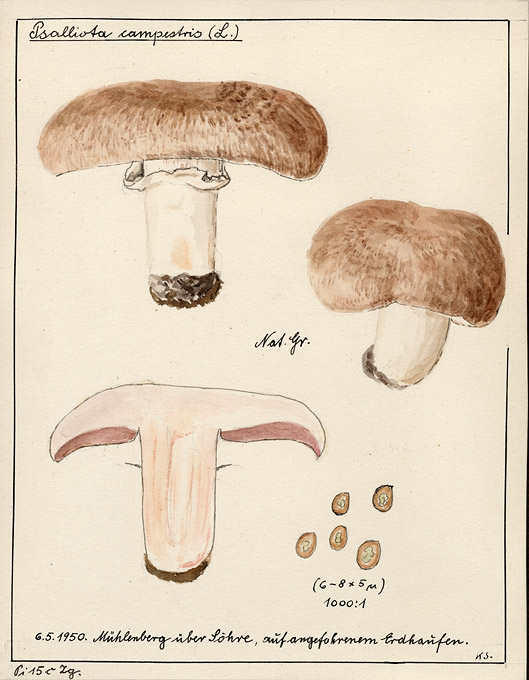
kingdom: Fungi
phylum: Basidiomycota
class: Agaricomycetes
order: Agaricales
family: Agaricaceae
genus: Agaricus
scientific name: Agaricus campestris
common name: Field mushroom
